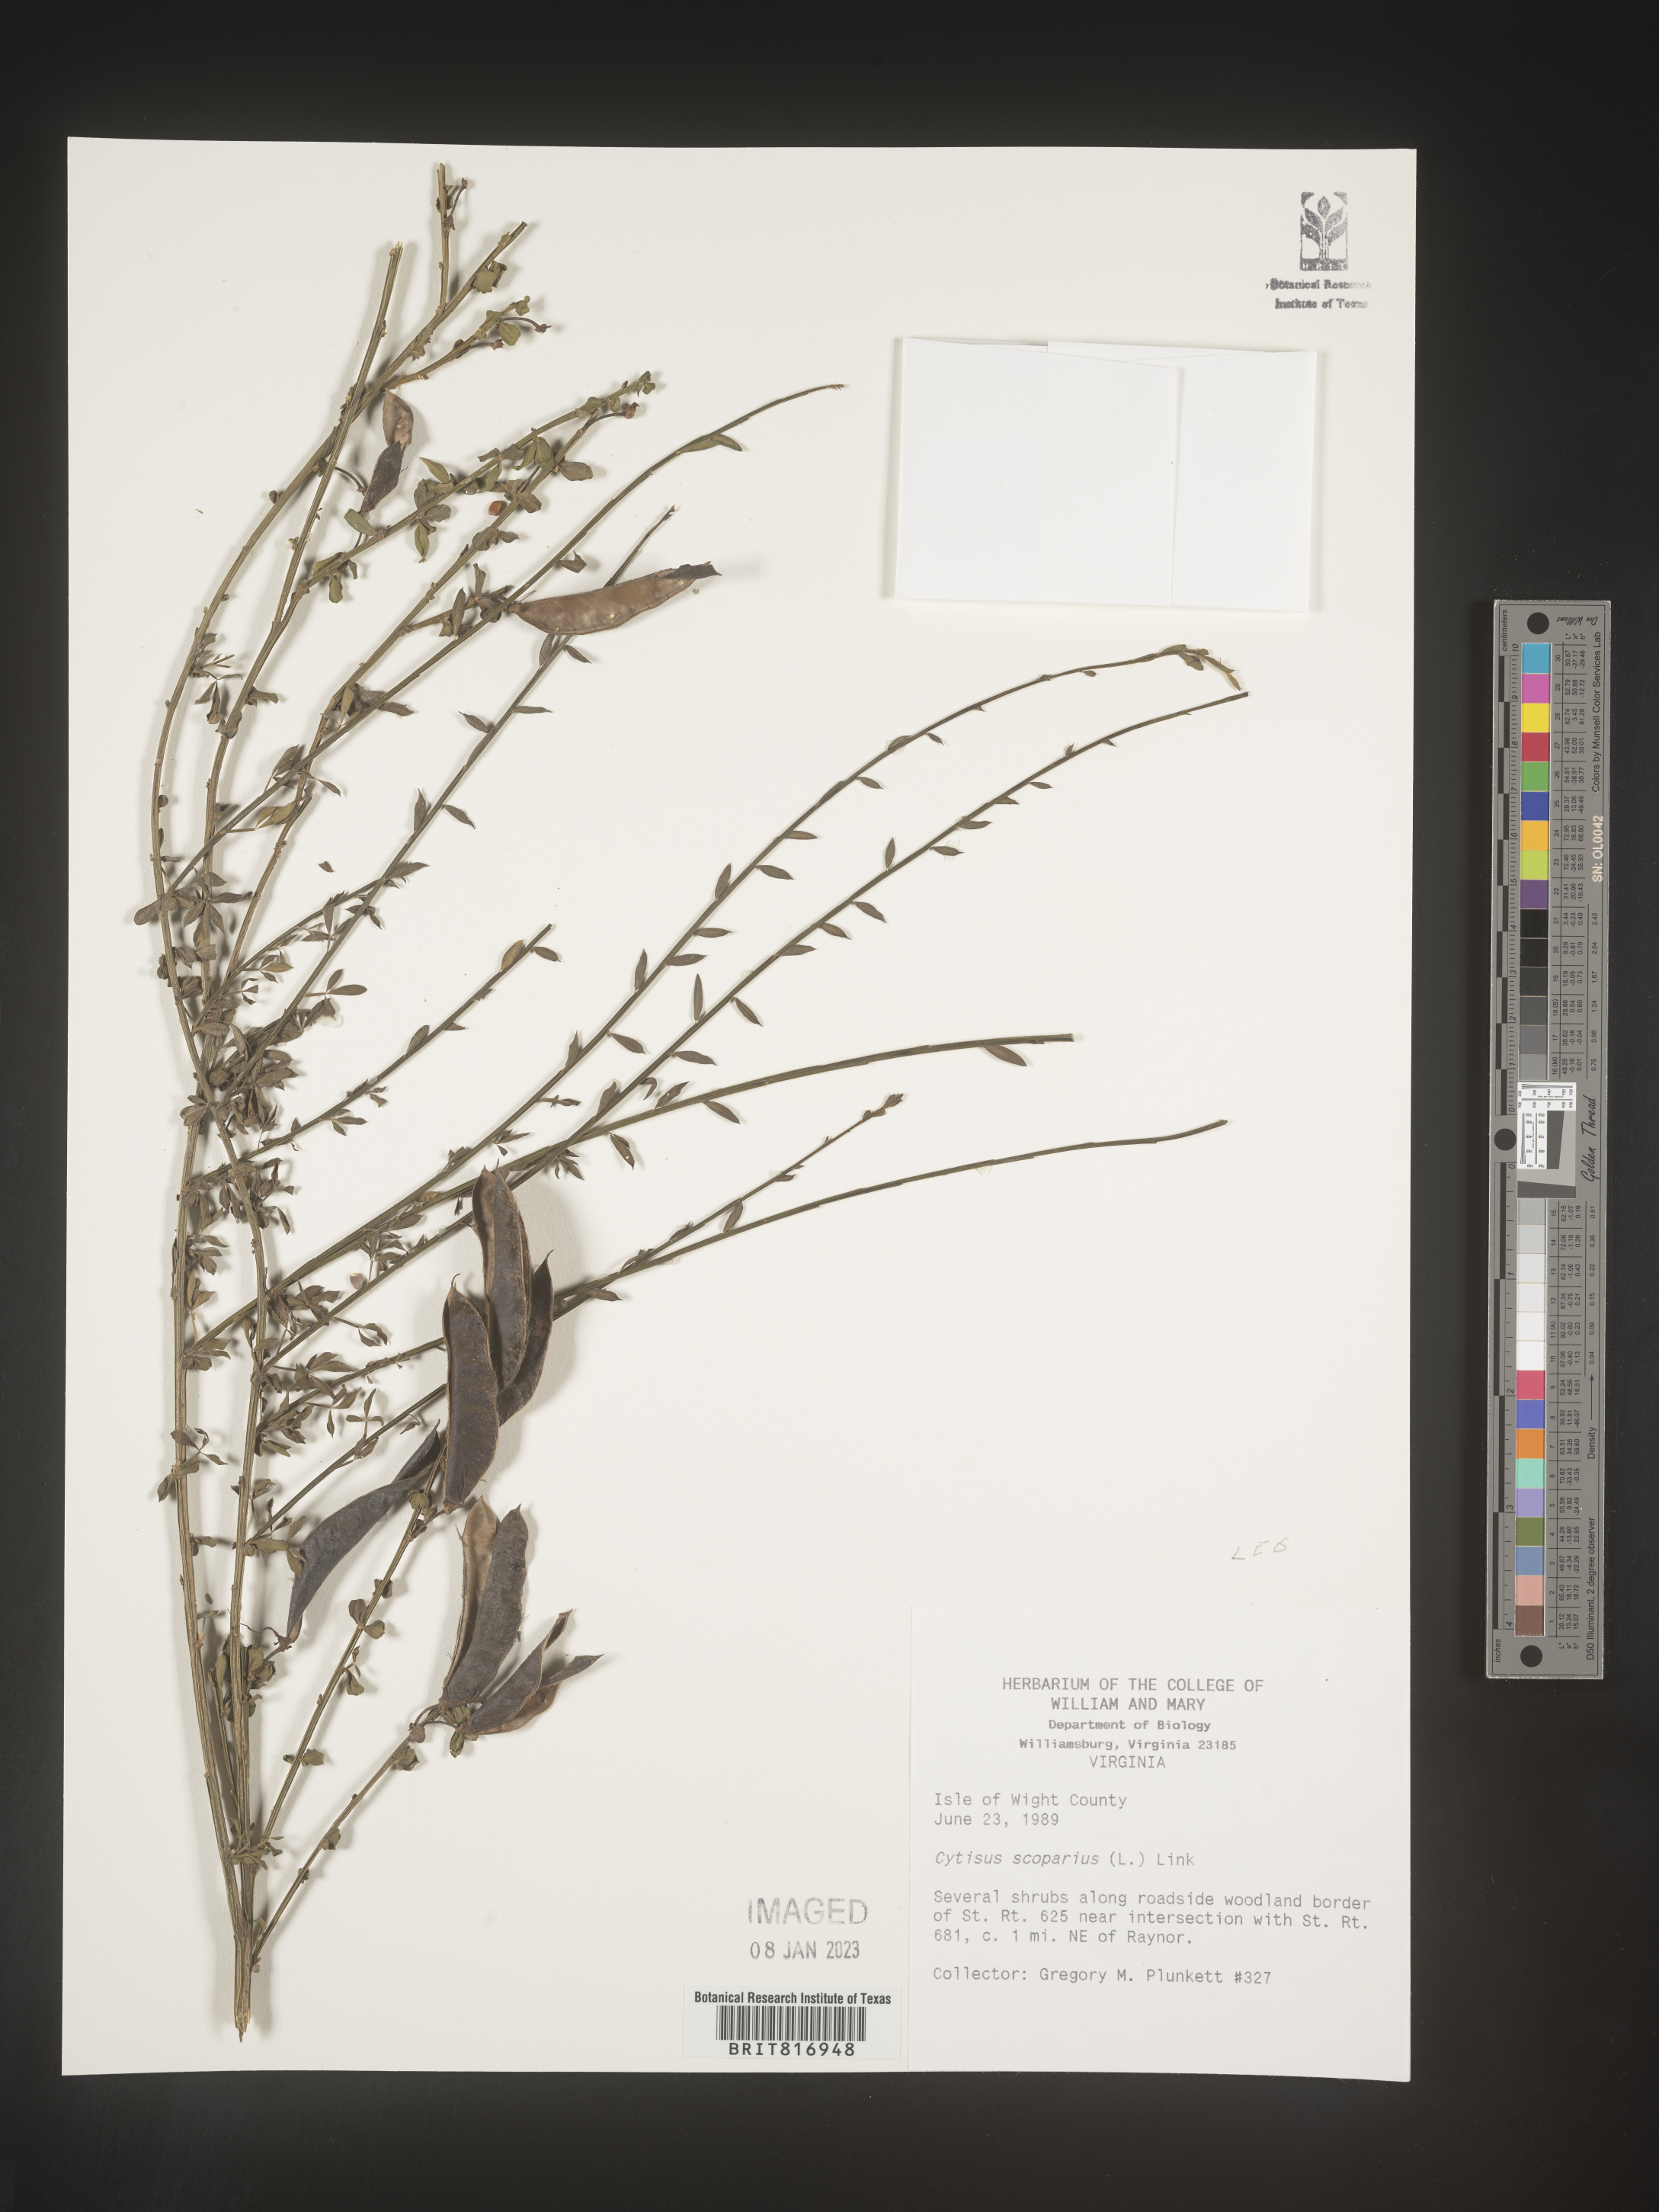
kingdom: Plantae
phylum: Tracheophyta
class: Magnoliopsida
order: Fabales
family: Fabaceae
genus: Cytisus
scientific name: Cytisus
